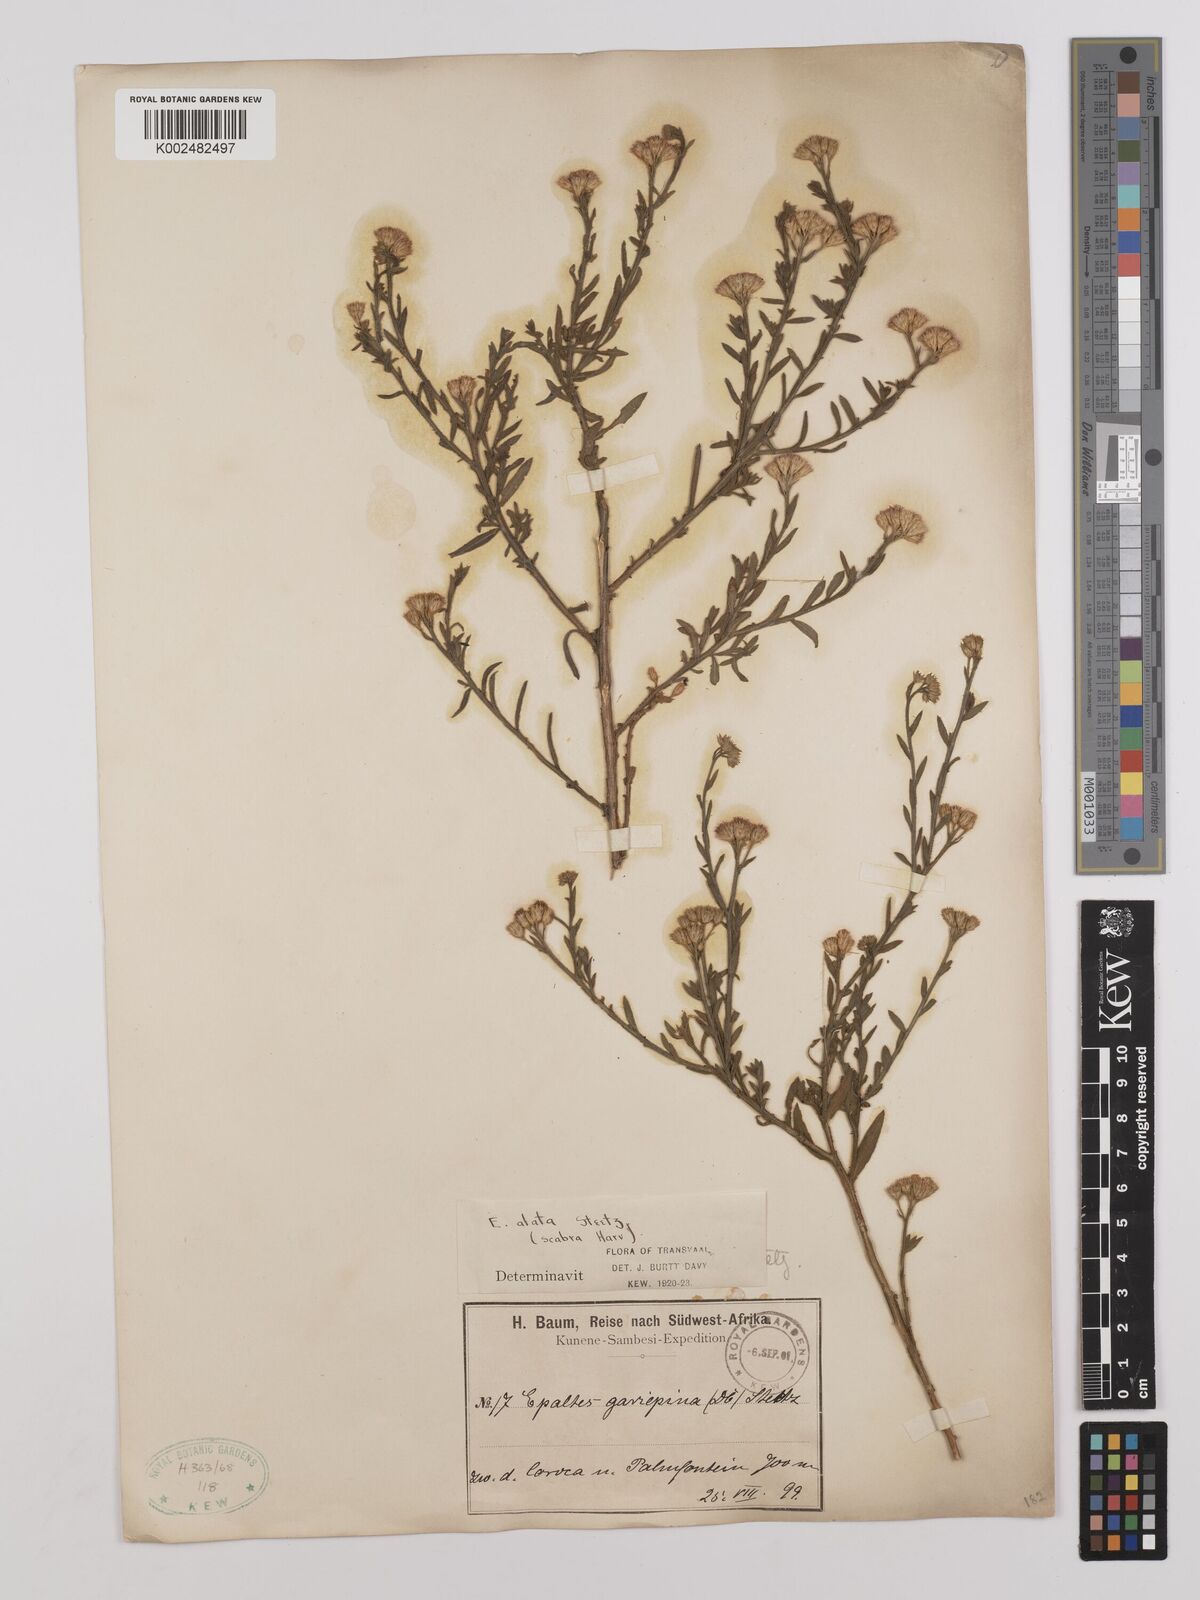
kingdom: Plantae
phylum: Tracheophyta
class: Magnoliopsida
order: Asterales
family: Asteraceae
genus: Litogyne
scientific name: Litogyne gariepina
